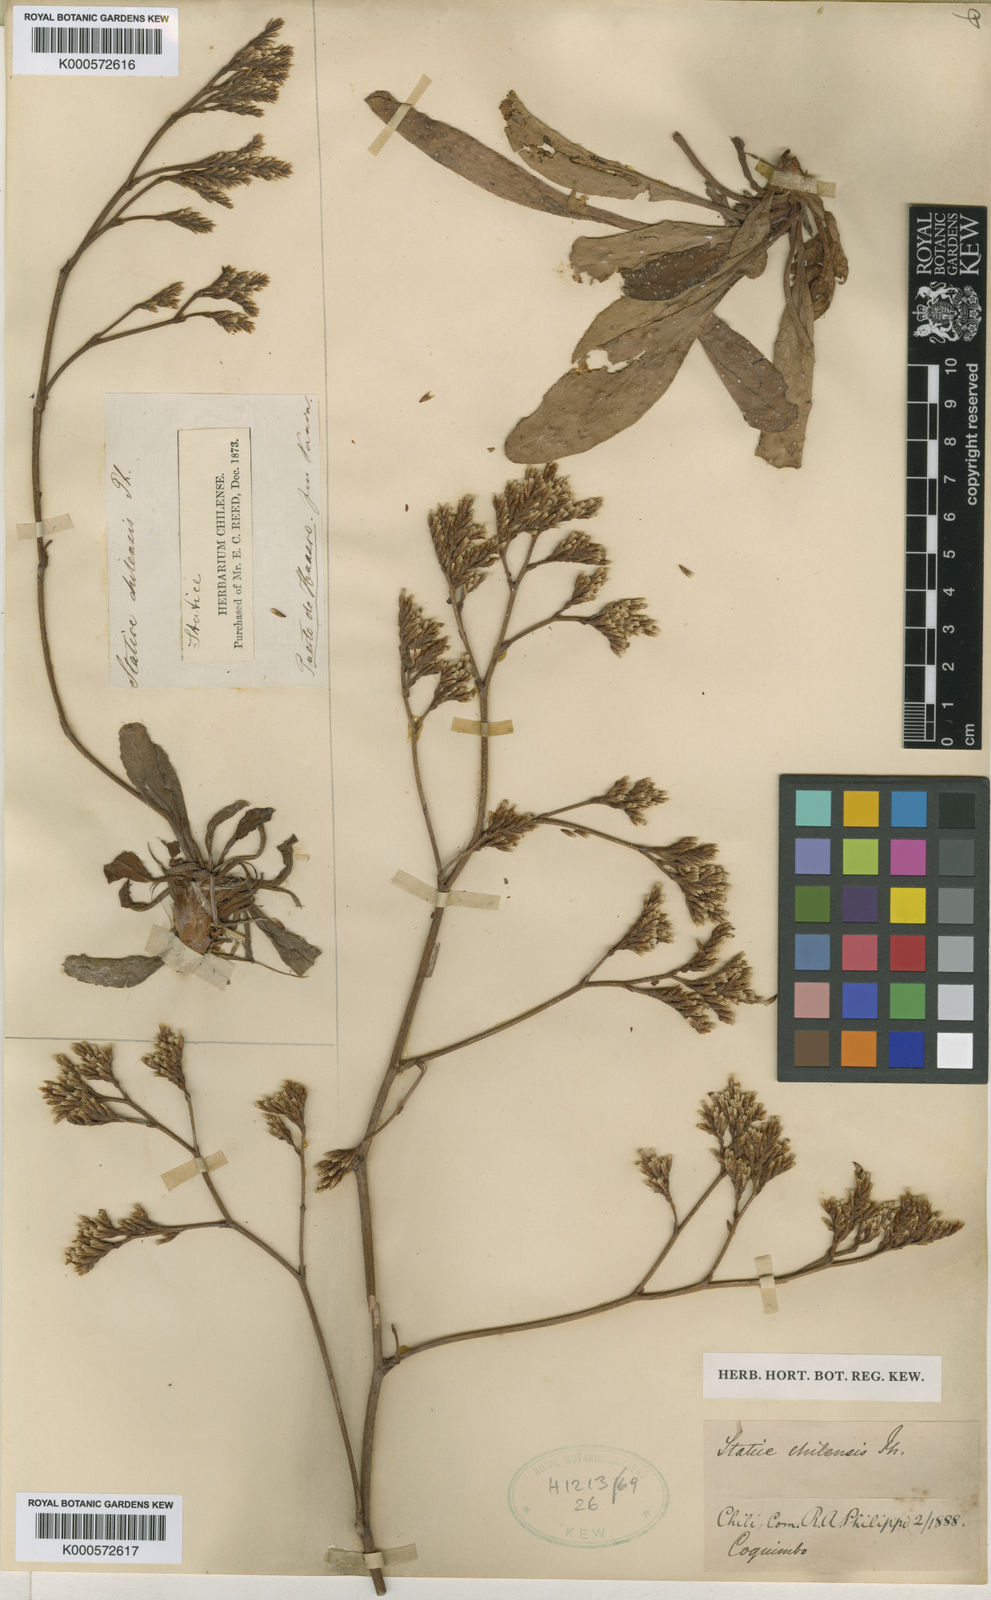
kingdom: Plantae
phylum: Tracheophyta
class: Magnoliopsida
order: Caryophyllales
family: Plumbaginaceae
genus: Limonium
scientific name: Limonium
